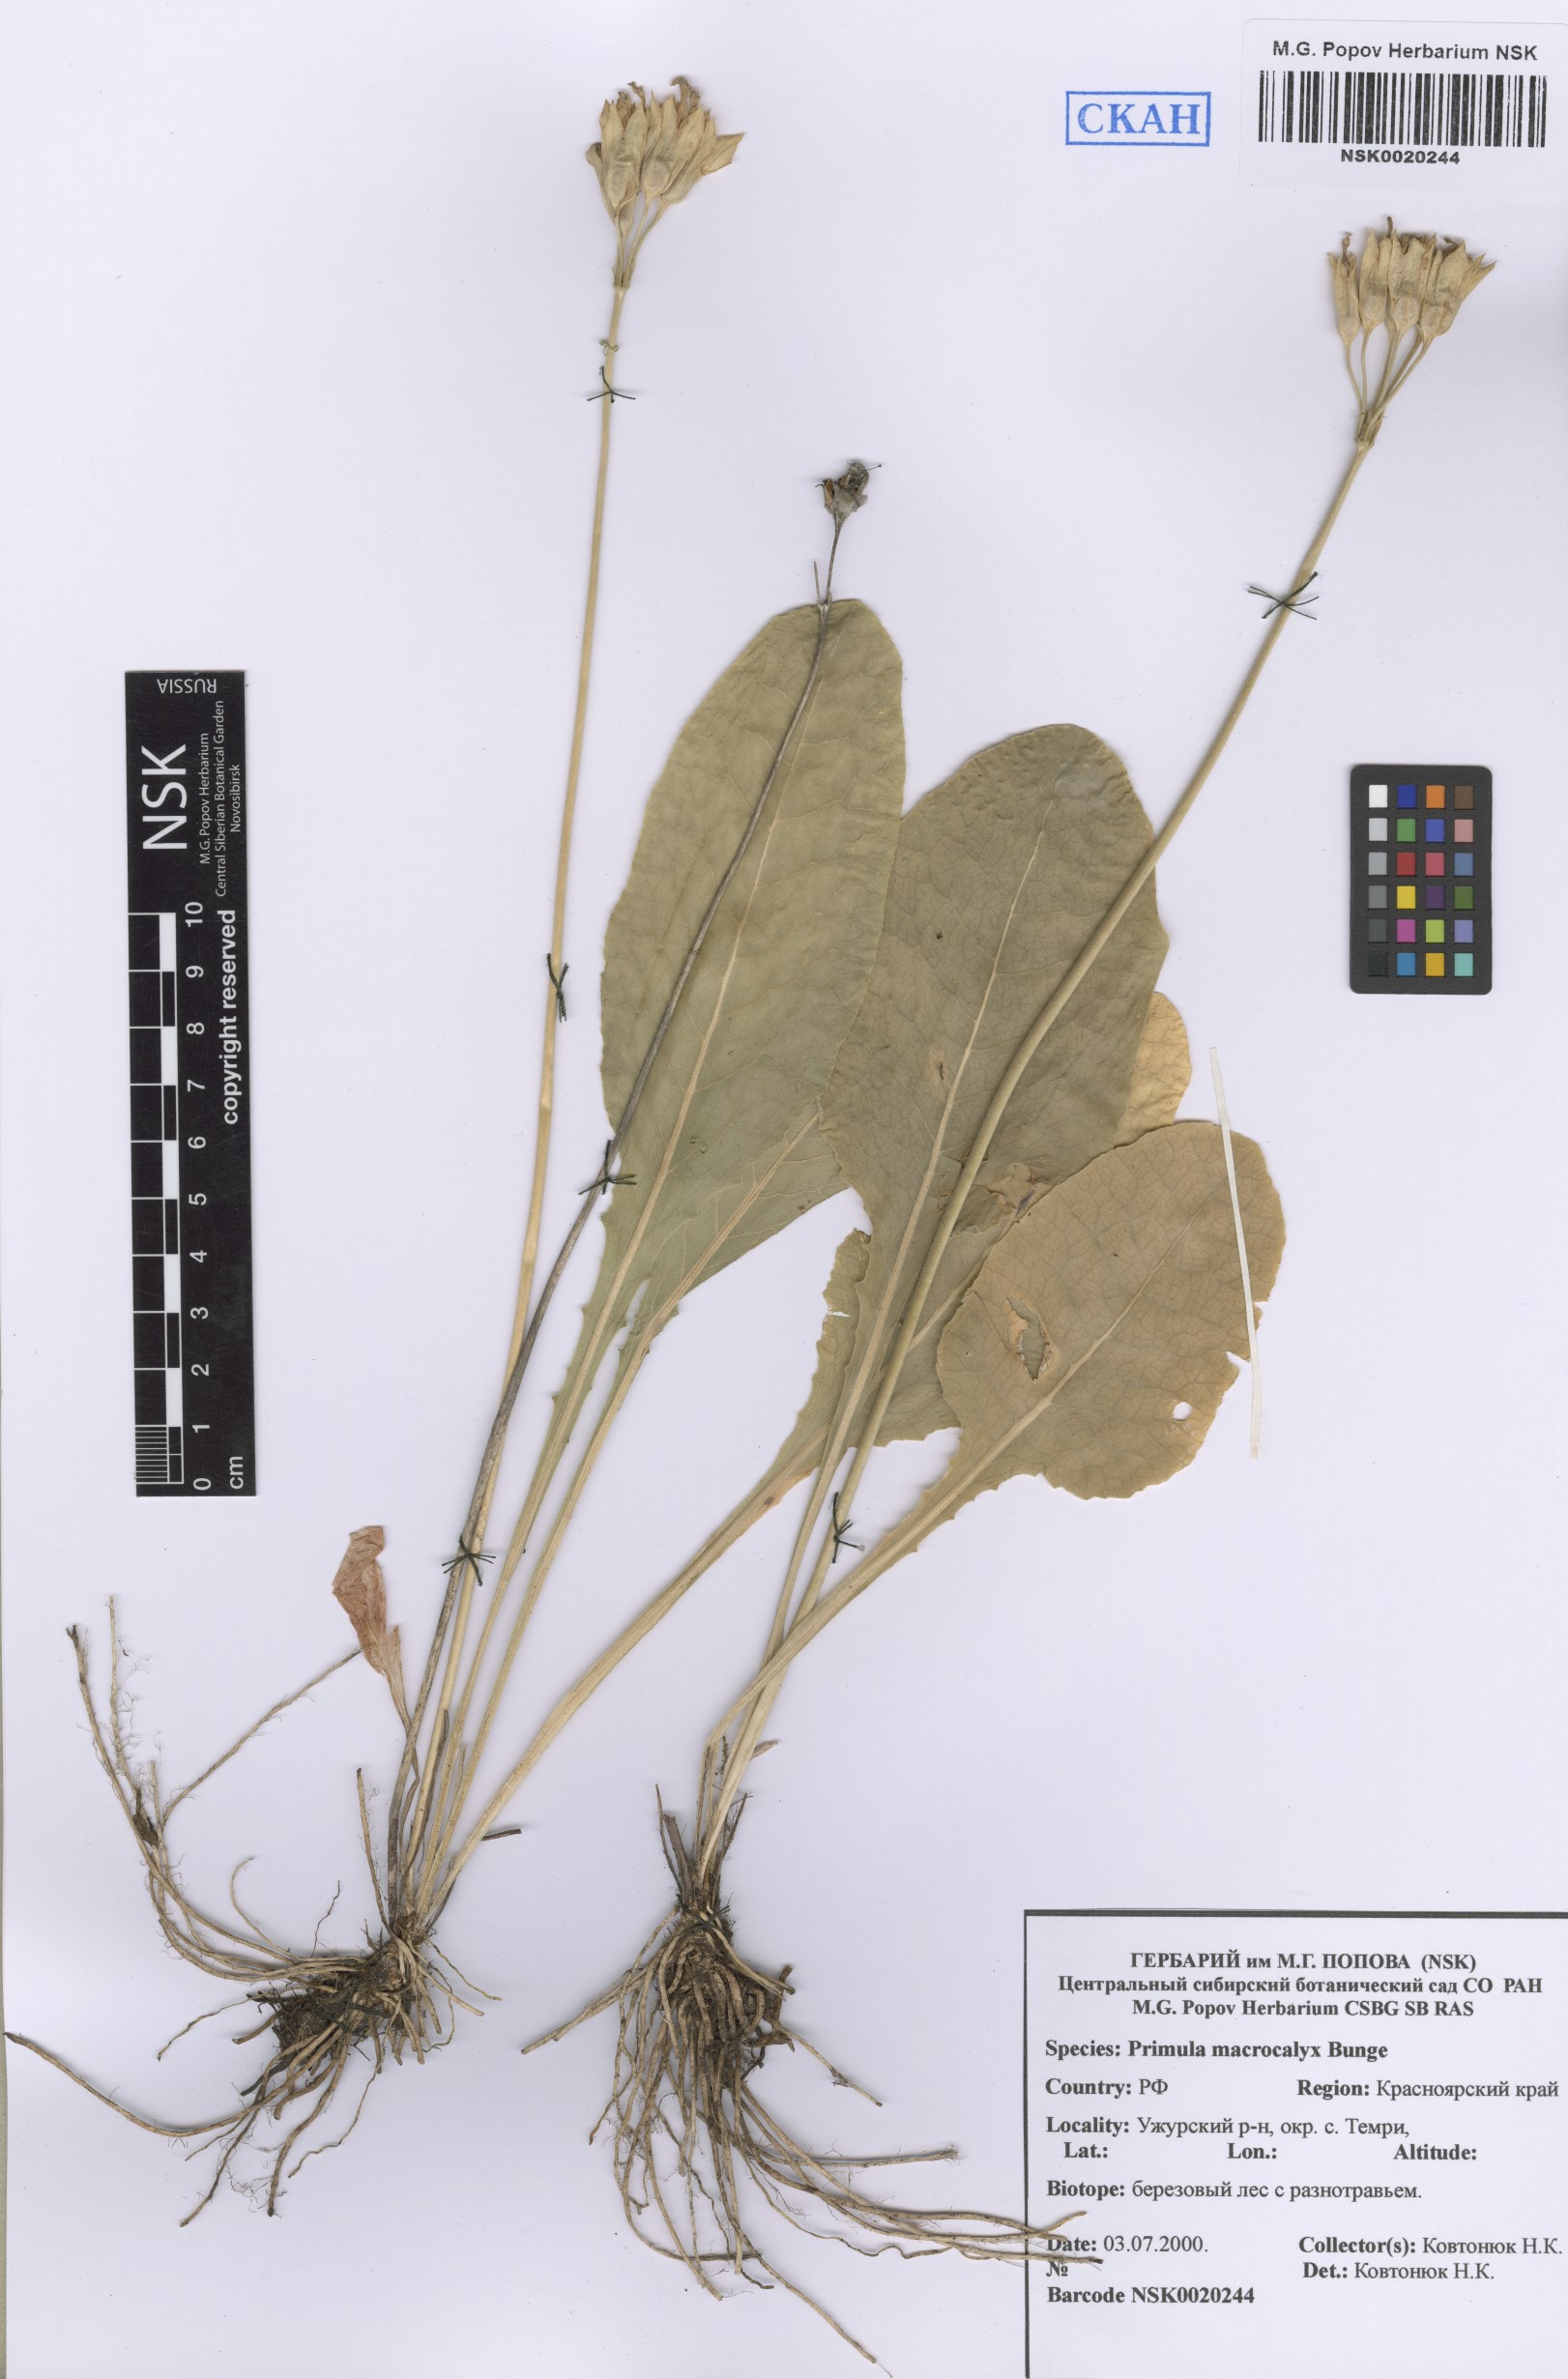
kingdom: Plantae
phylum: Tracheophyta
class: Magnoliopsida
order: Ericales
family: Primulaceae
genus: Primula
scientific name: Primula veris
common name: Cowslip
